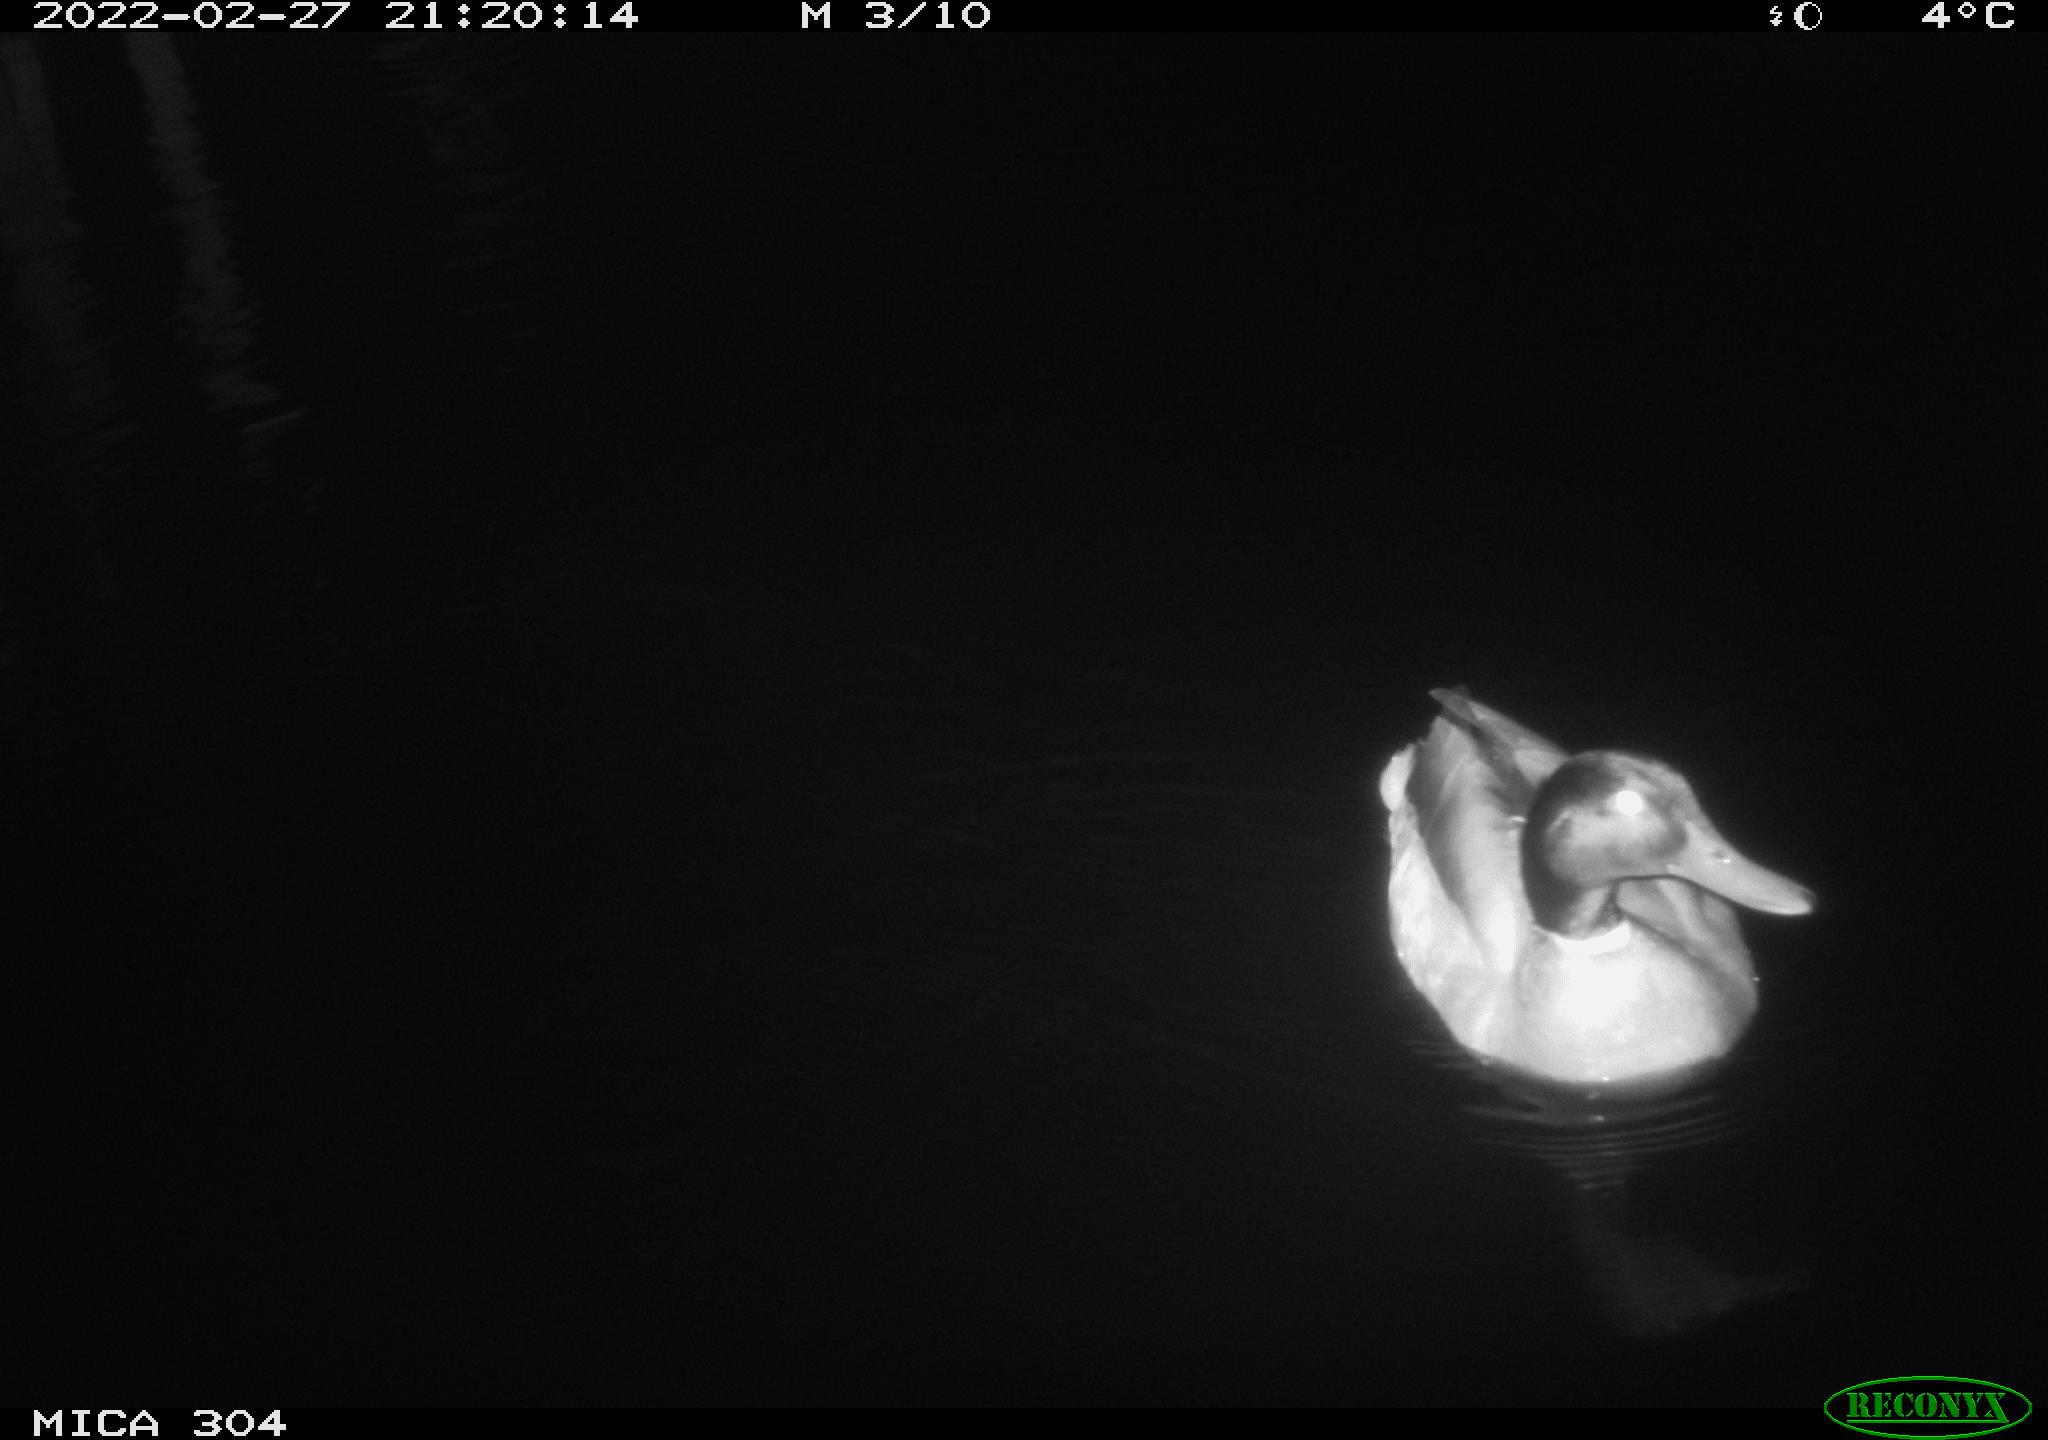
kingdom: Animalia
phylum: Chordata
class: Aves
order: Anseriformes
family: Anatidae
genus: Anas
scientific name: Anas platyrhynchos
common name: Mallard
